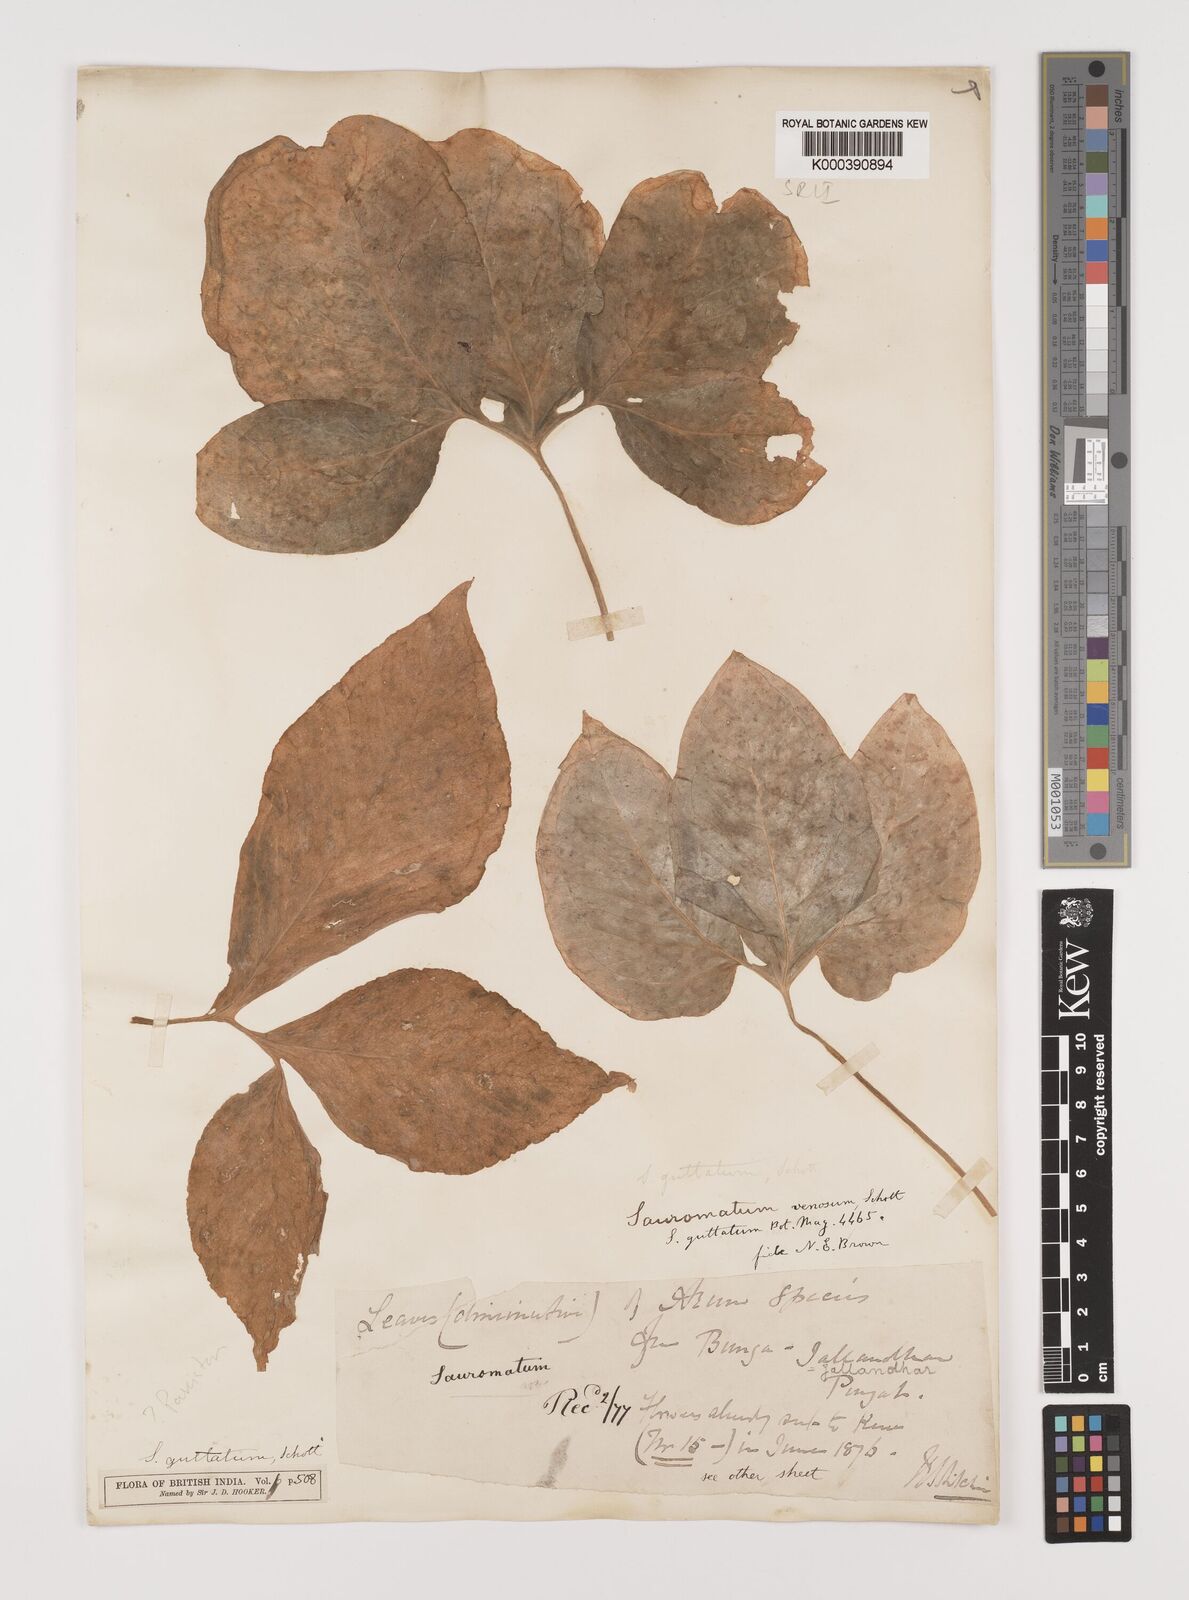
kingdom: Plantae
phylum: Tracheophyta
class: Liliopsida
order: Alismatales
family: Araceae
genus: Sauromatum
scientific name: Sauromatum venosum
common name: Voodoo lily
